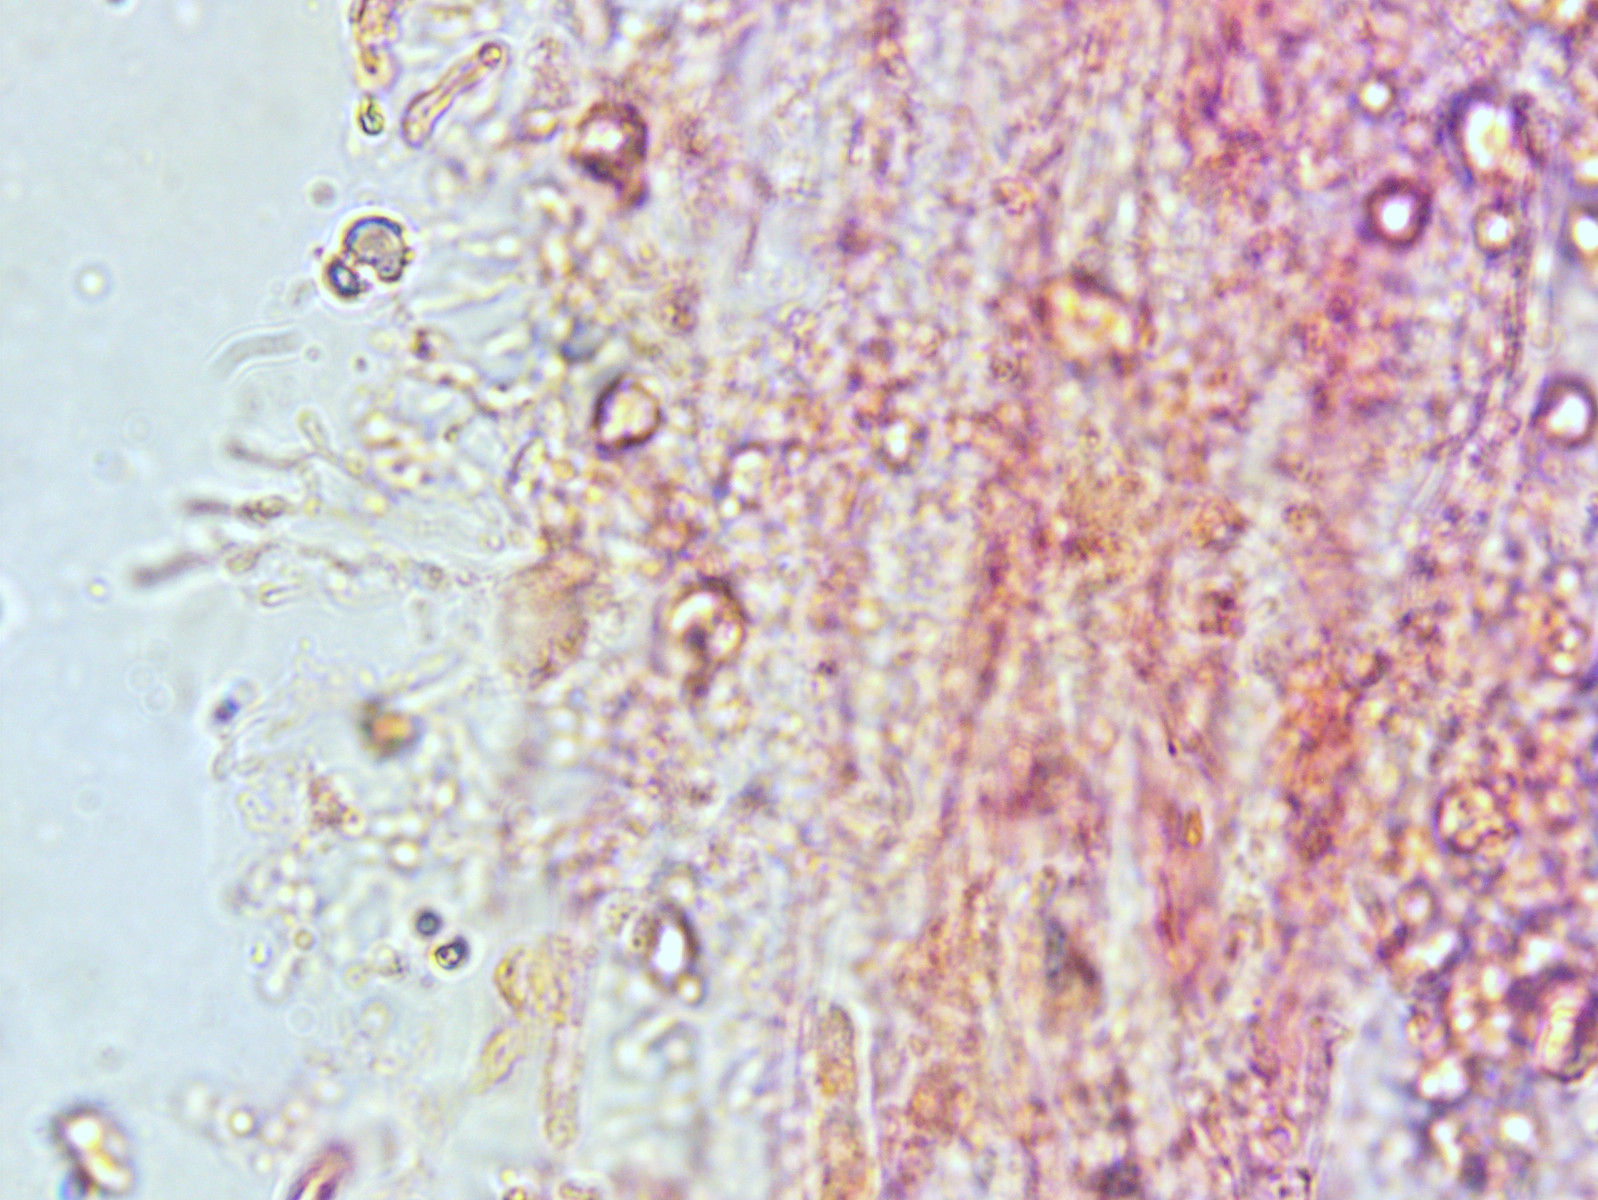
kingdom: Fungi
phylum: Basidiomycota
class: Agaricomycetes
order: Agaricales
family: Mycenaceae
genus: Mycena
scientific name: Mycena polygramma
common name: mangestribet huesvamp
